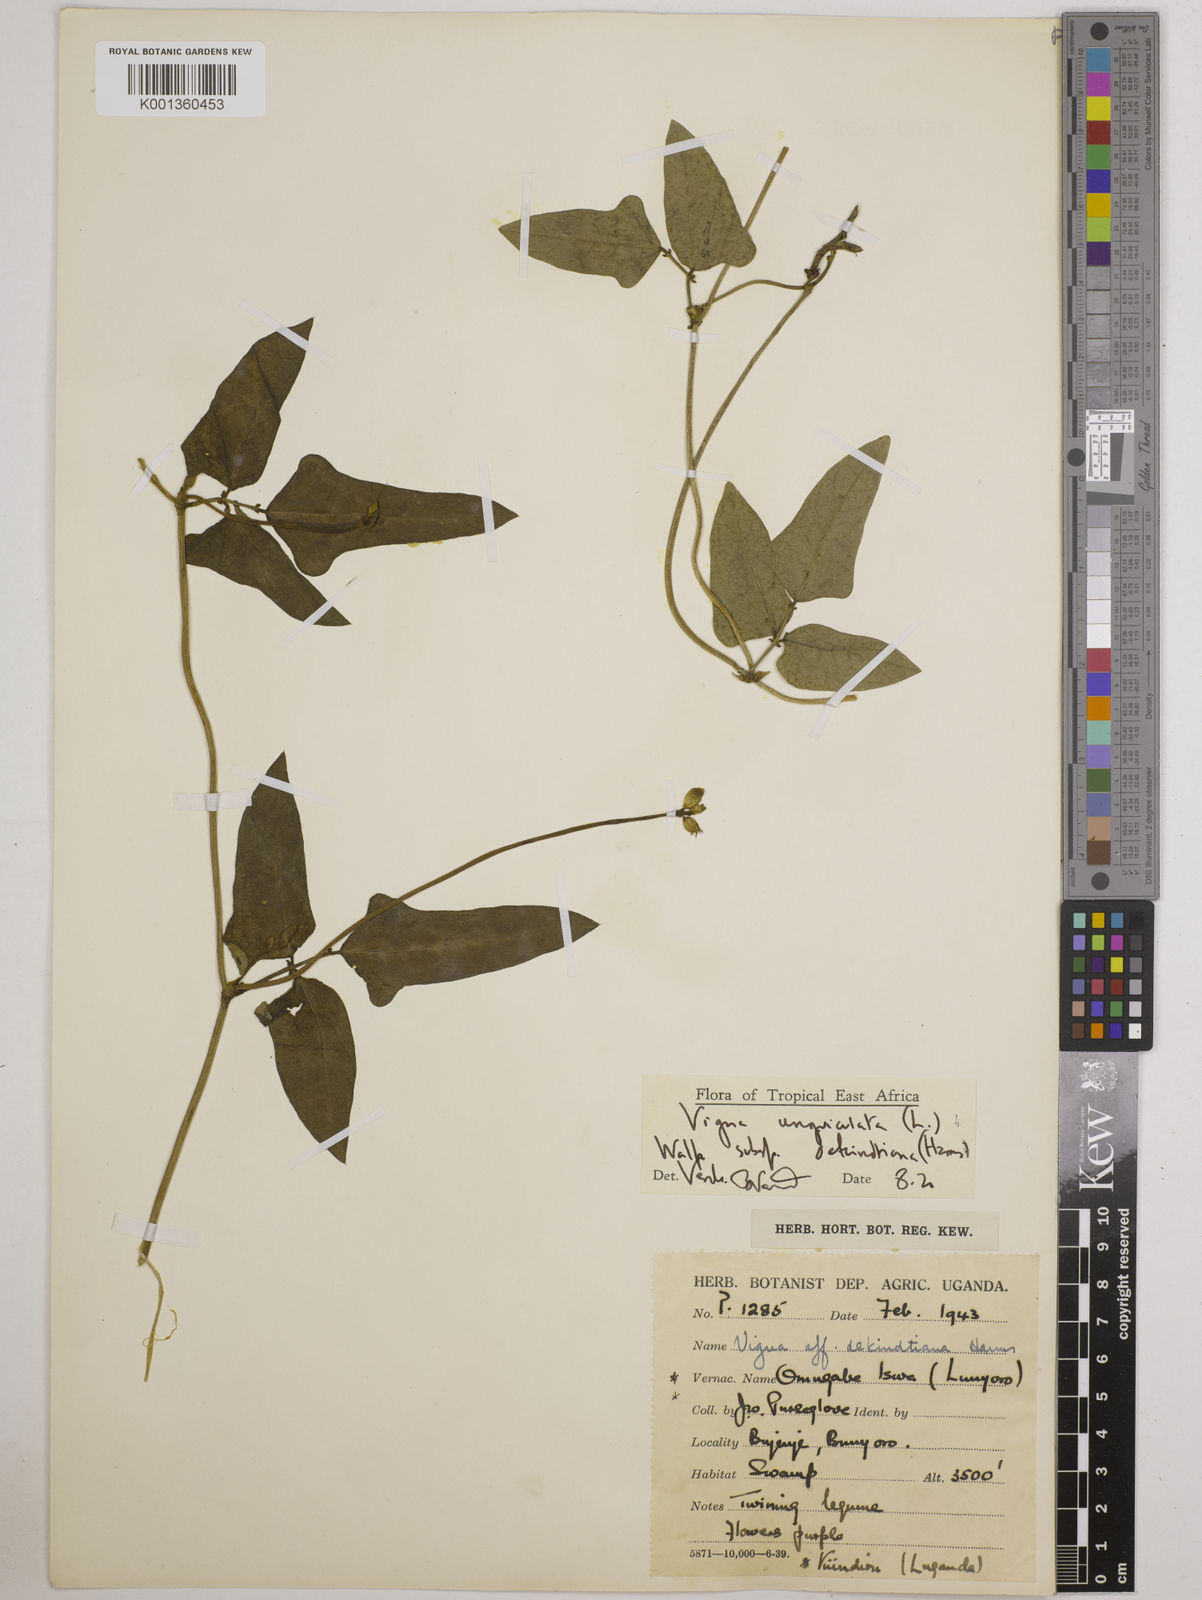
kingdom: Plantae
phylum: Tracheophyta
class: Magnoliopsida
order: Fabales
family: Fabaceae
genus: Vigna
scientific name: Vigna unguiculata
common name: Cowpea
